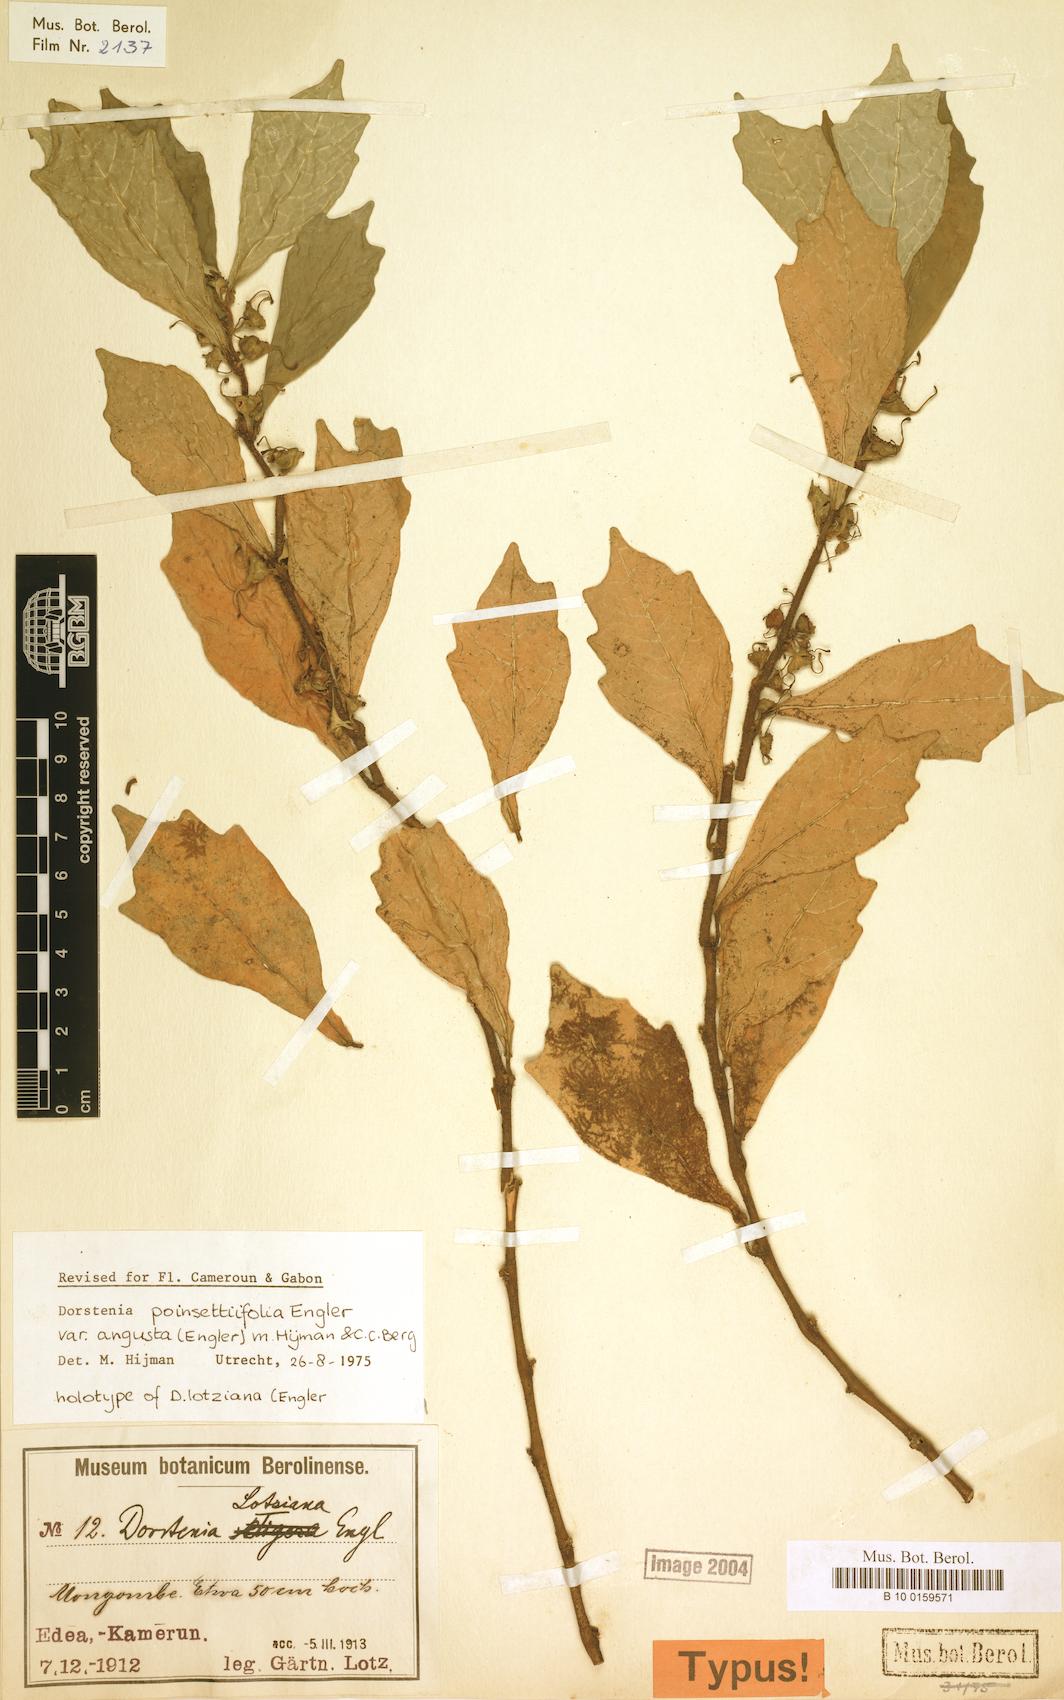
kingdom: Plantae
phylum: Tracheophyta
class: Magnoliopsida
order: Rosales
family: Moraceae
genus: Dorstenia
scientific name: Dorstenia poinsettifolia
